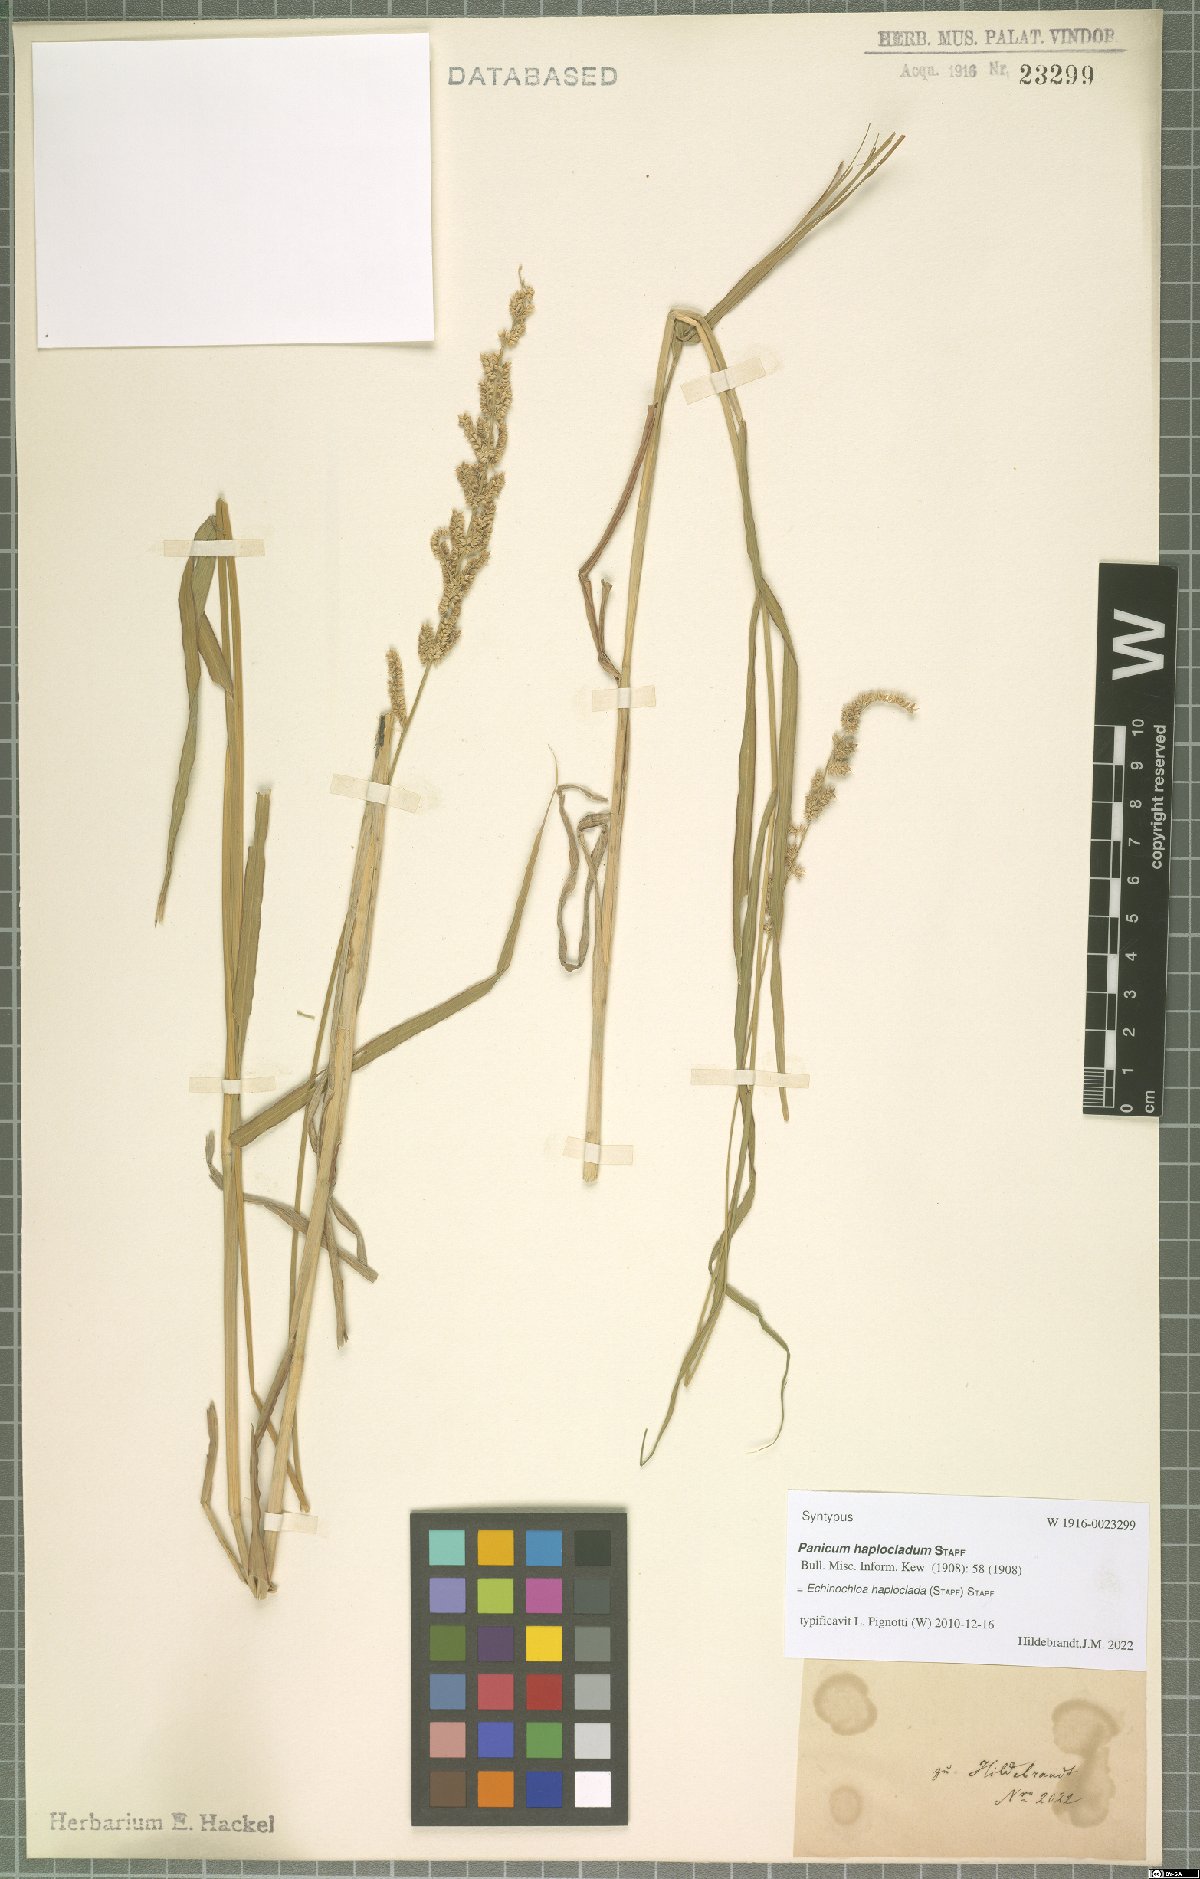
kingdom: Plantae
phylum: Tracheophyta
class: Liliopsida
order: Poales
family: Poaceae
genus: Echinochloa
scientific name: Echinochloa haploclada
